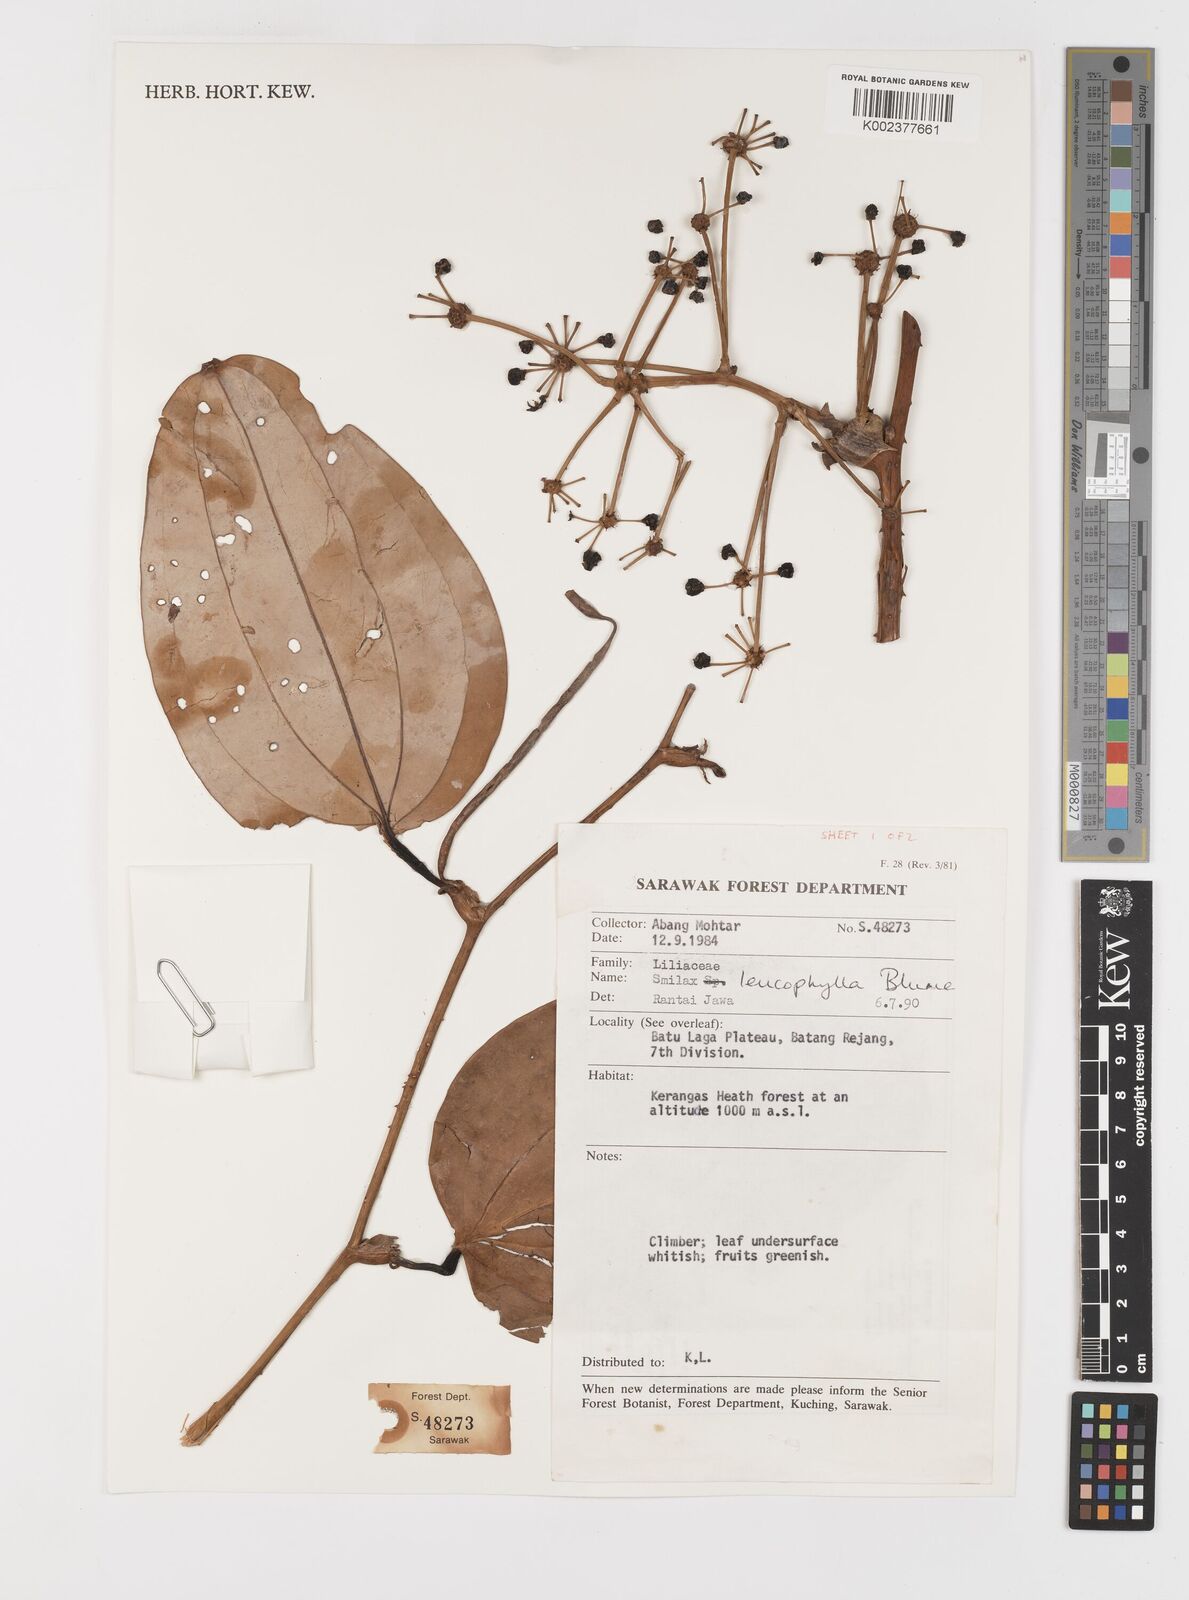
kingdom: Plantae
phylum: Tracheophyta
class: Liliopsida
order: Liliales
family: Smilacaceae
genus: Smilax
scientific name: Smilax leucophylla
